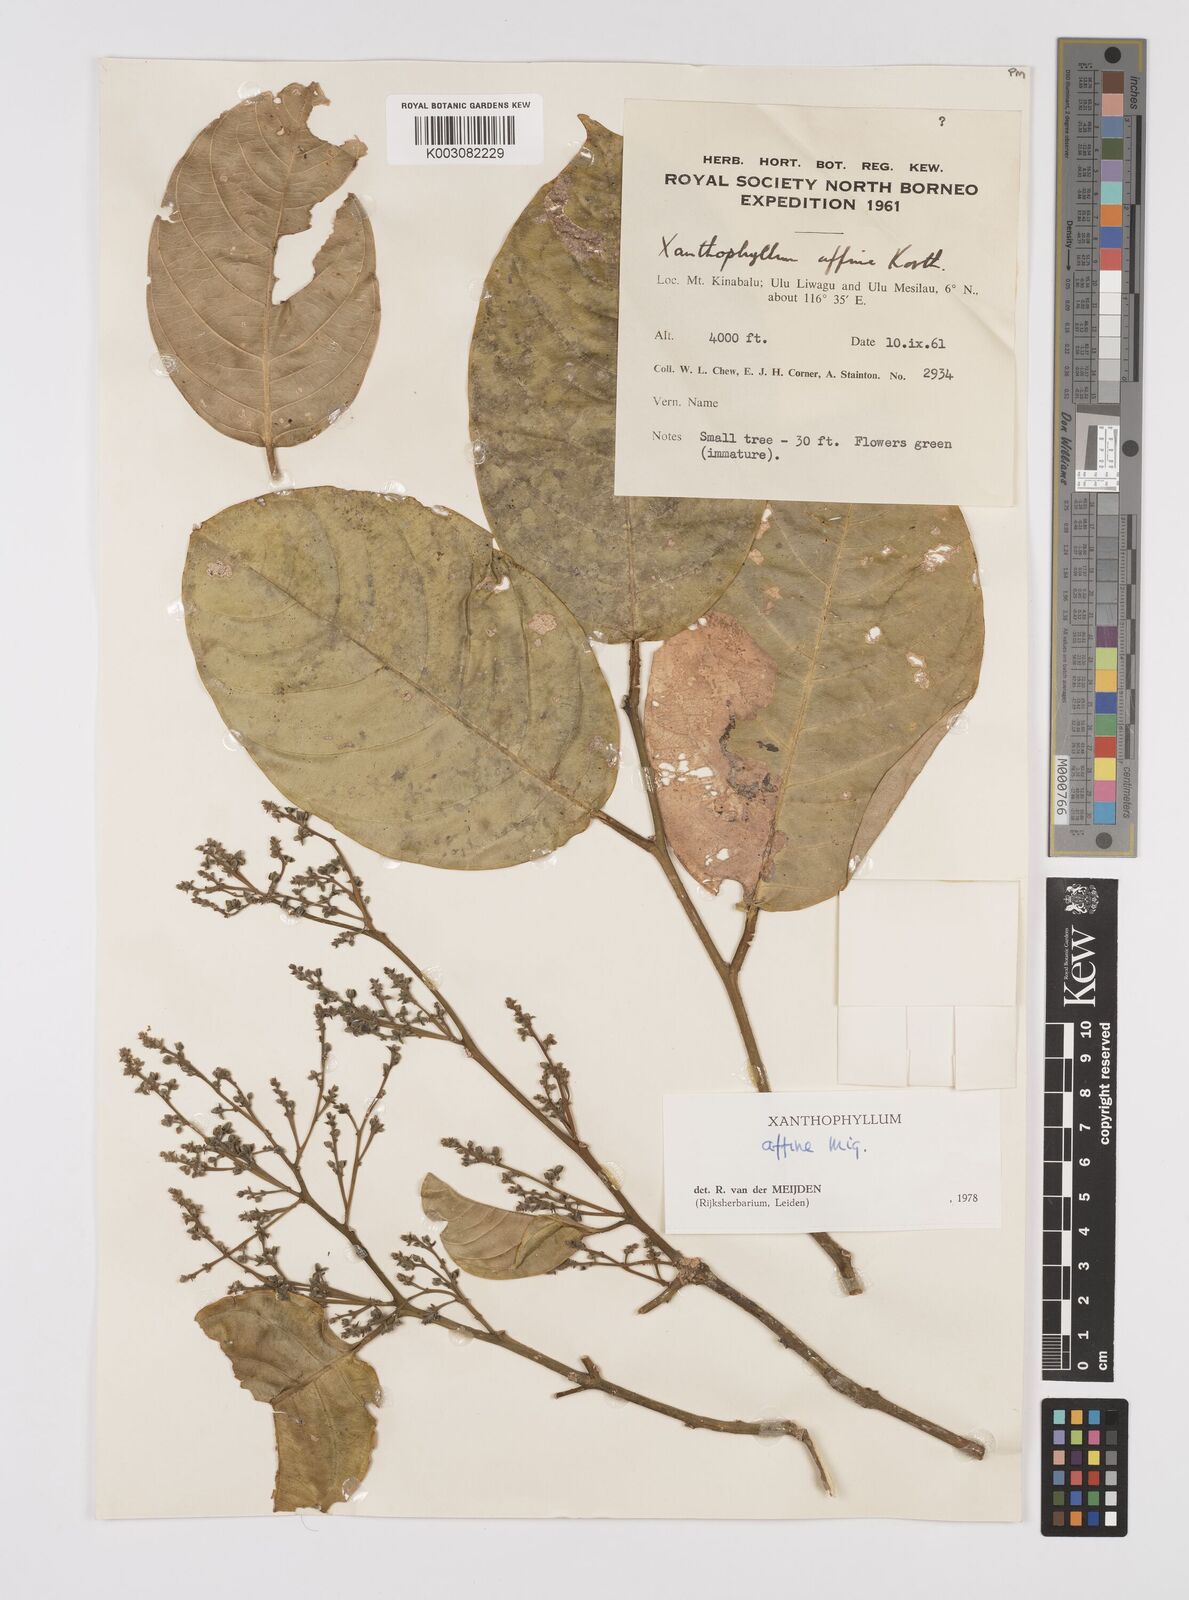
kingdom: Plantae
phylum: Tracheophyta
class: Magnoliopsida
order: Fabales
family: Polygalaceae
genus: Xanthophyllum
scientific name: Xanthophyllum flavescens
